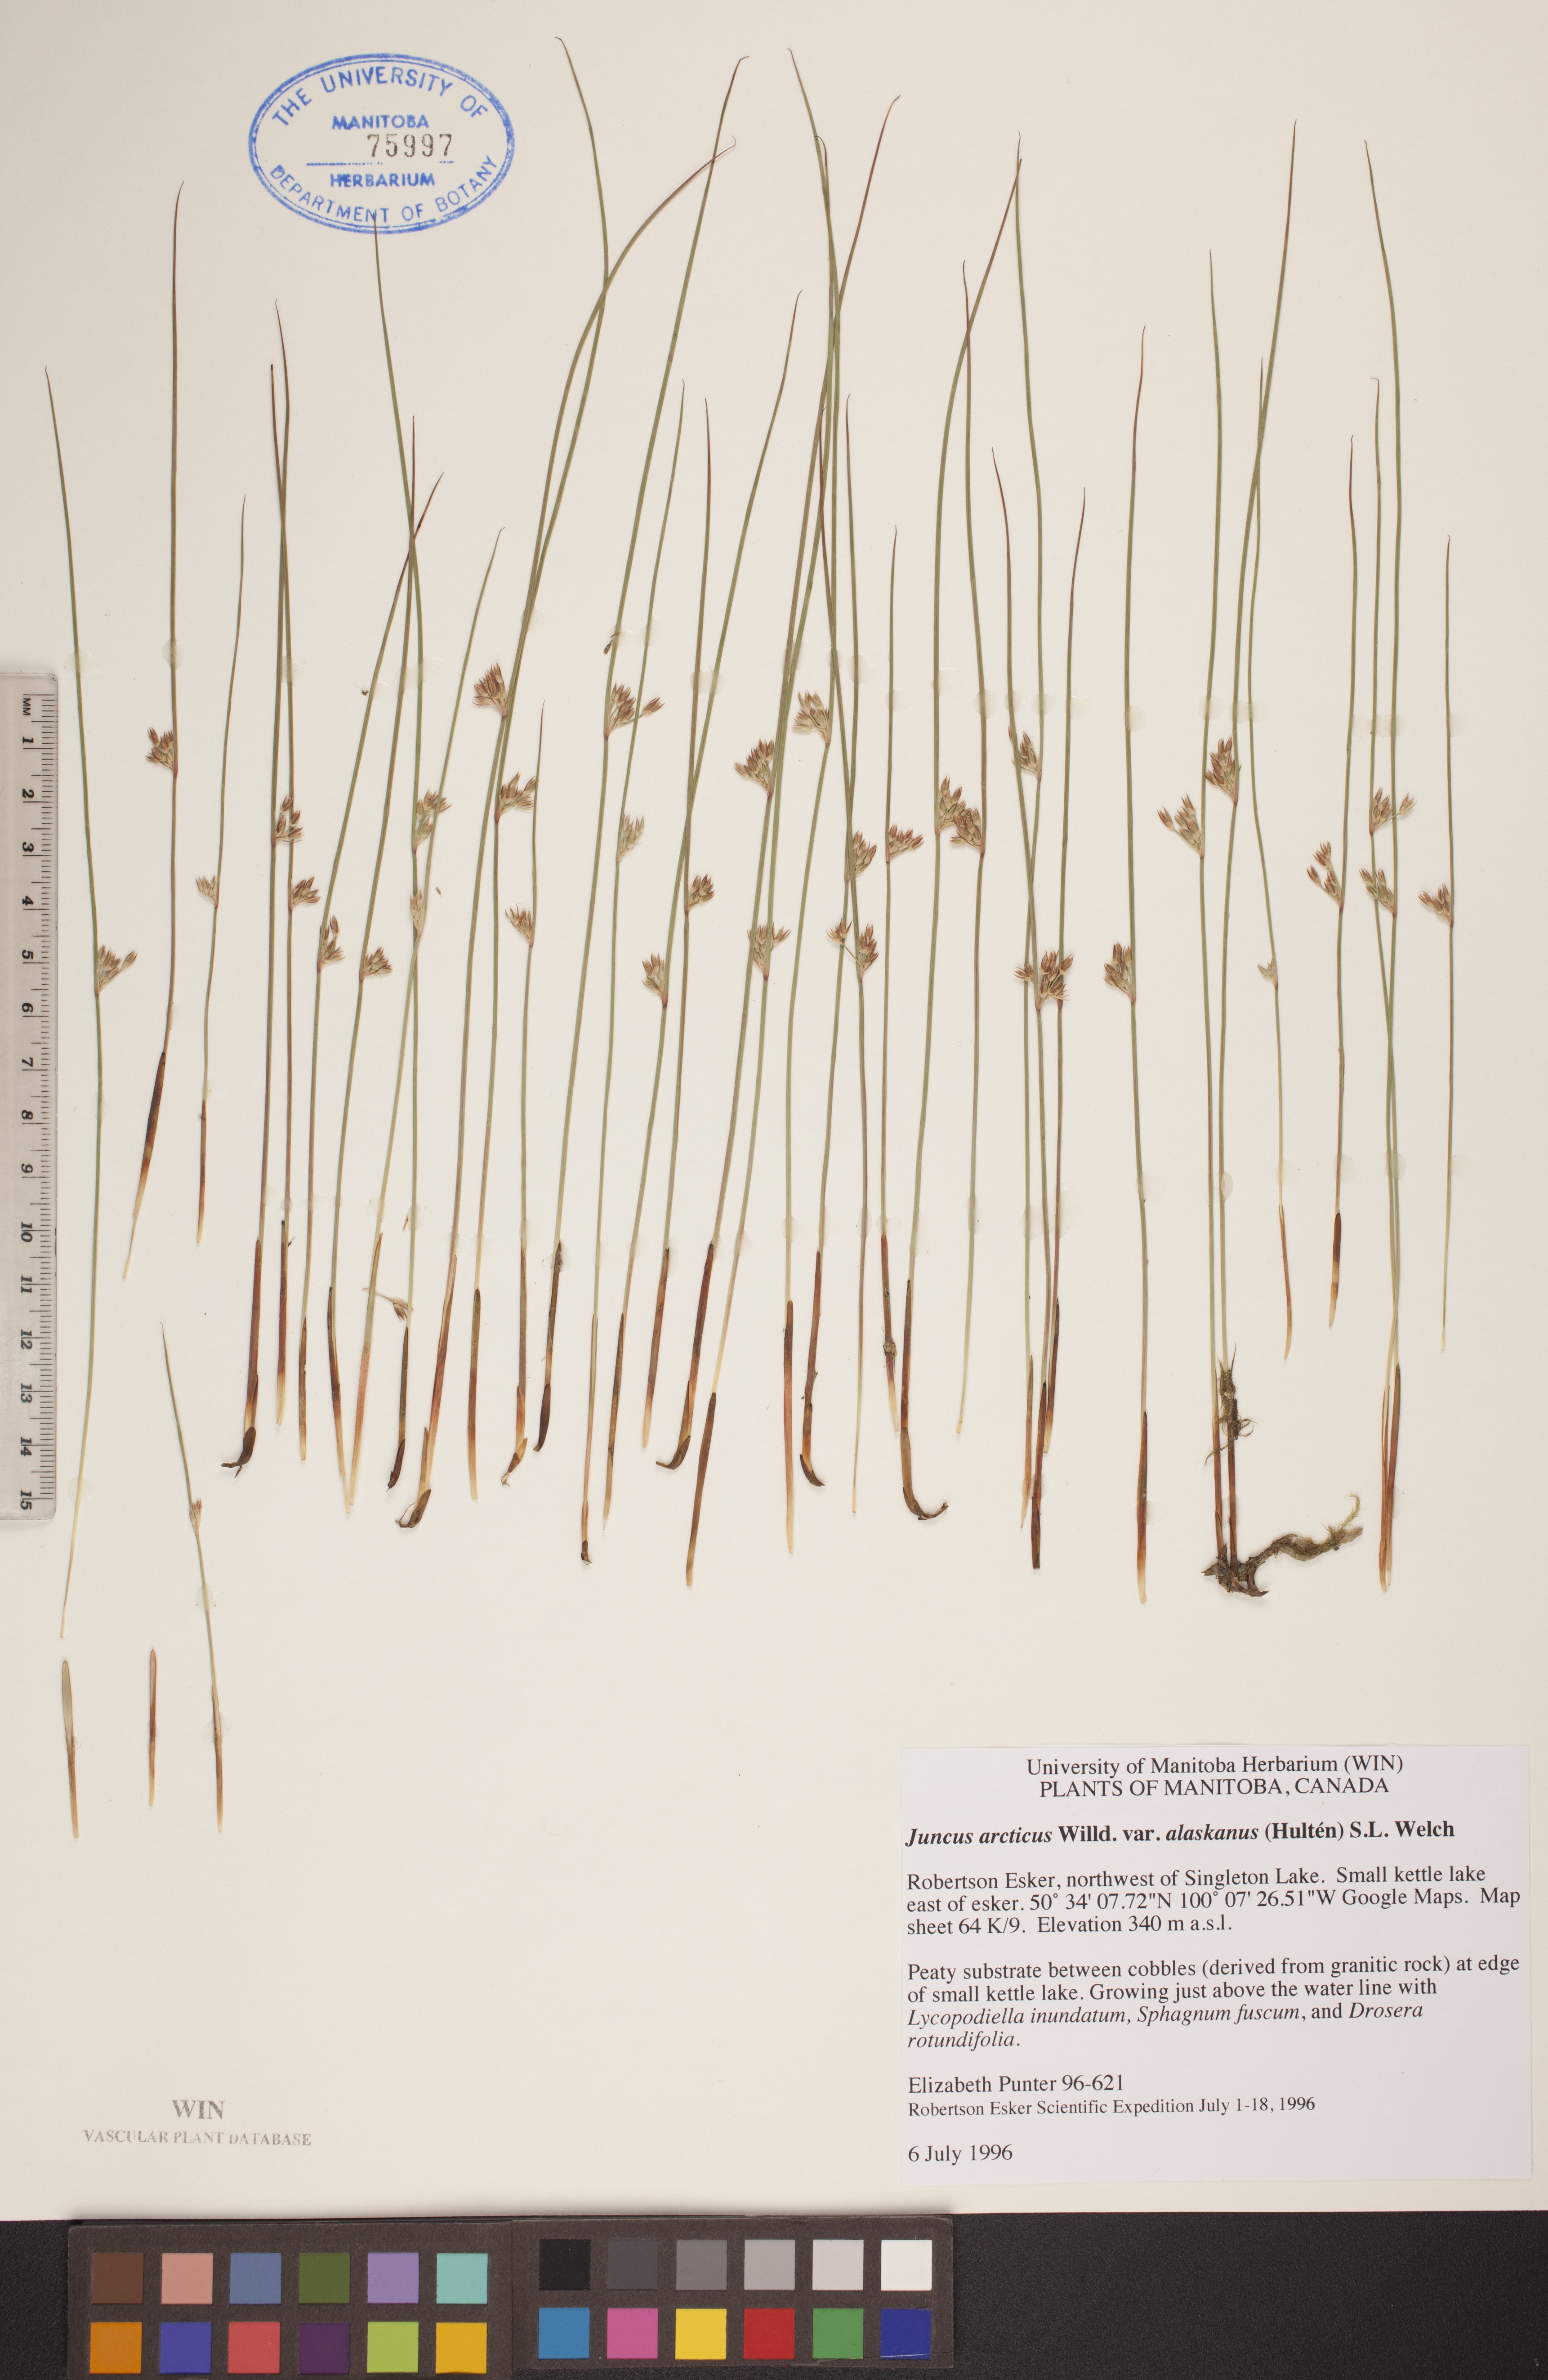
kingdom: Plantae
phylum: Tracheophyta
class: Liliopsida
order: Poales
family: Juncaceae
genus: Juncus
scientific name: Juncus arcticus
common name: Arctic rush
